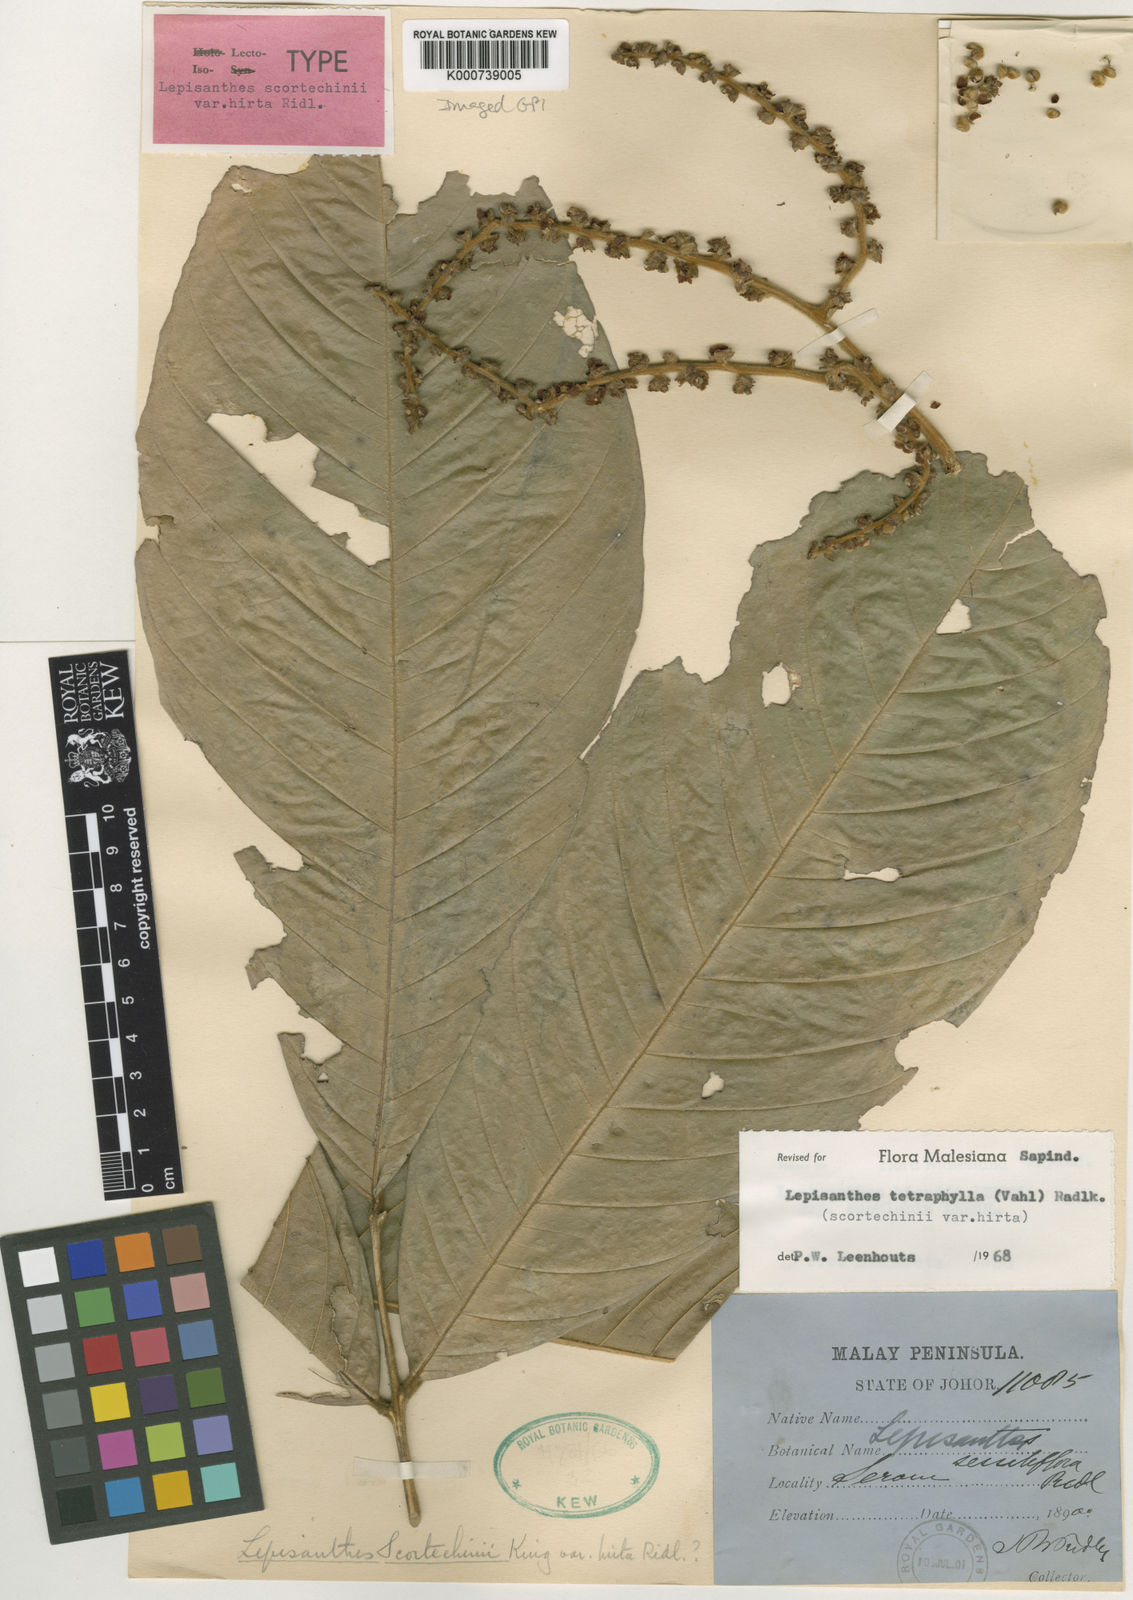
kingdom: Plantae
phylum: Tracheophyta
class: Magnoliopsida
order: Sapindales
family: Sapindaceae
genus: Lepisanthes
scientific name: Lepisanthes tetraphylla
